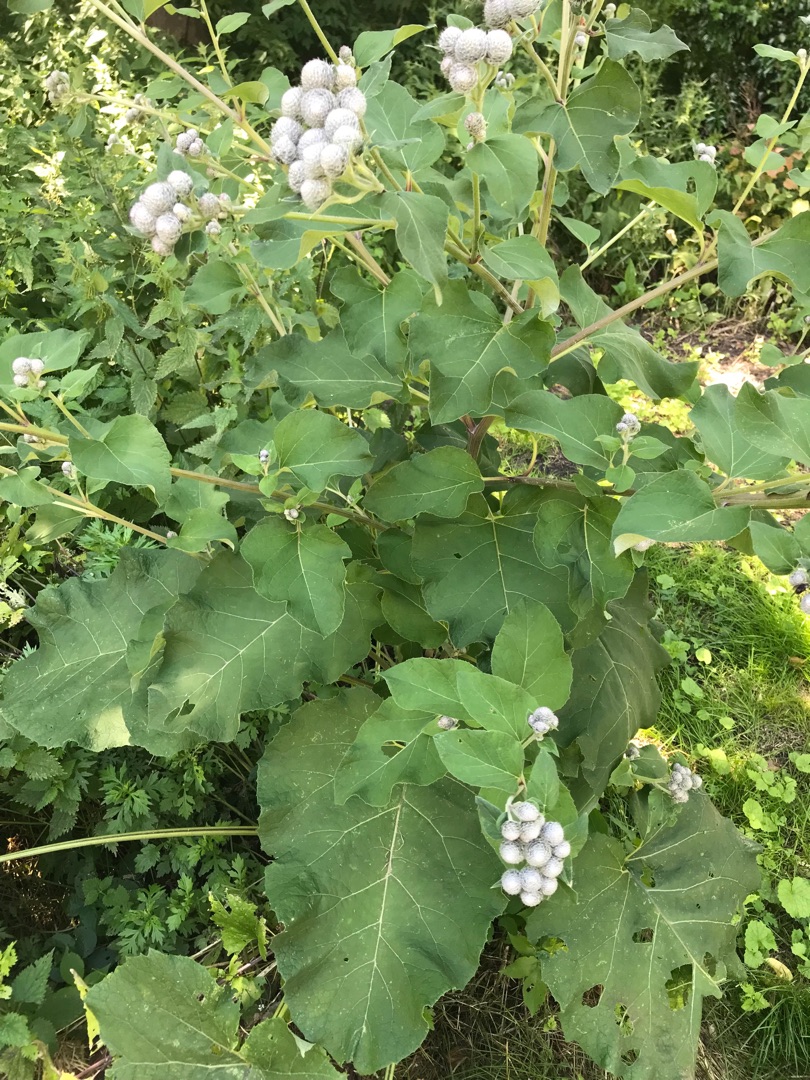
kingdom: Plantae
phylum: Tracheophyta
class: Magnoliopsida
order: Asterales
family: Asteraceae
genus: Arctium
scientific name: Arctium tomentosum
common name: Filtet burre
